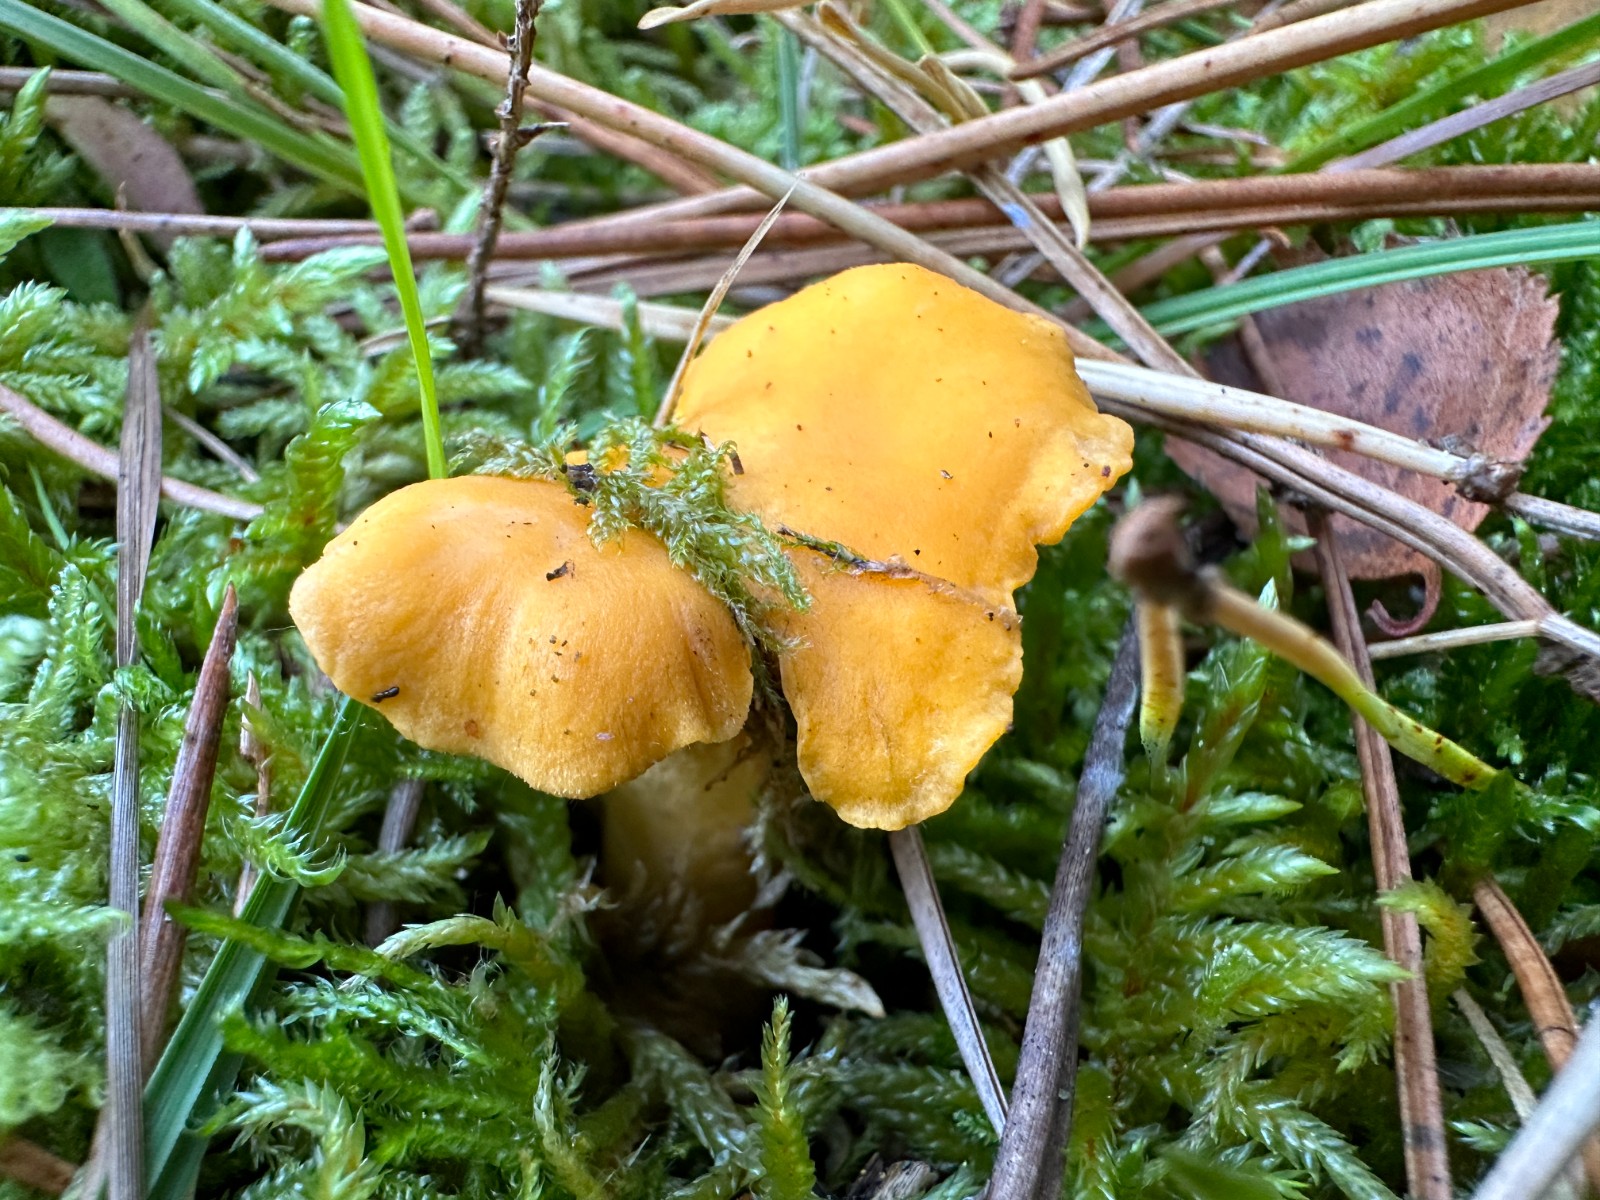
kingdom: Fungi
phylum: Basidiomycota
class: Agaricomycetes
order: Cantharellales
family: Hydnaceae
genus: Cantharellus
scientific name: Cantharellus cibarius
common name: almindelig kantarel
